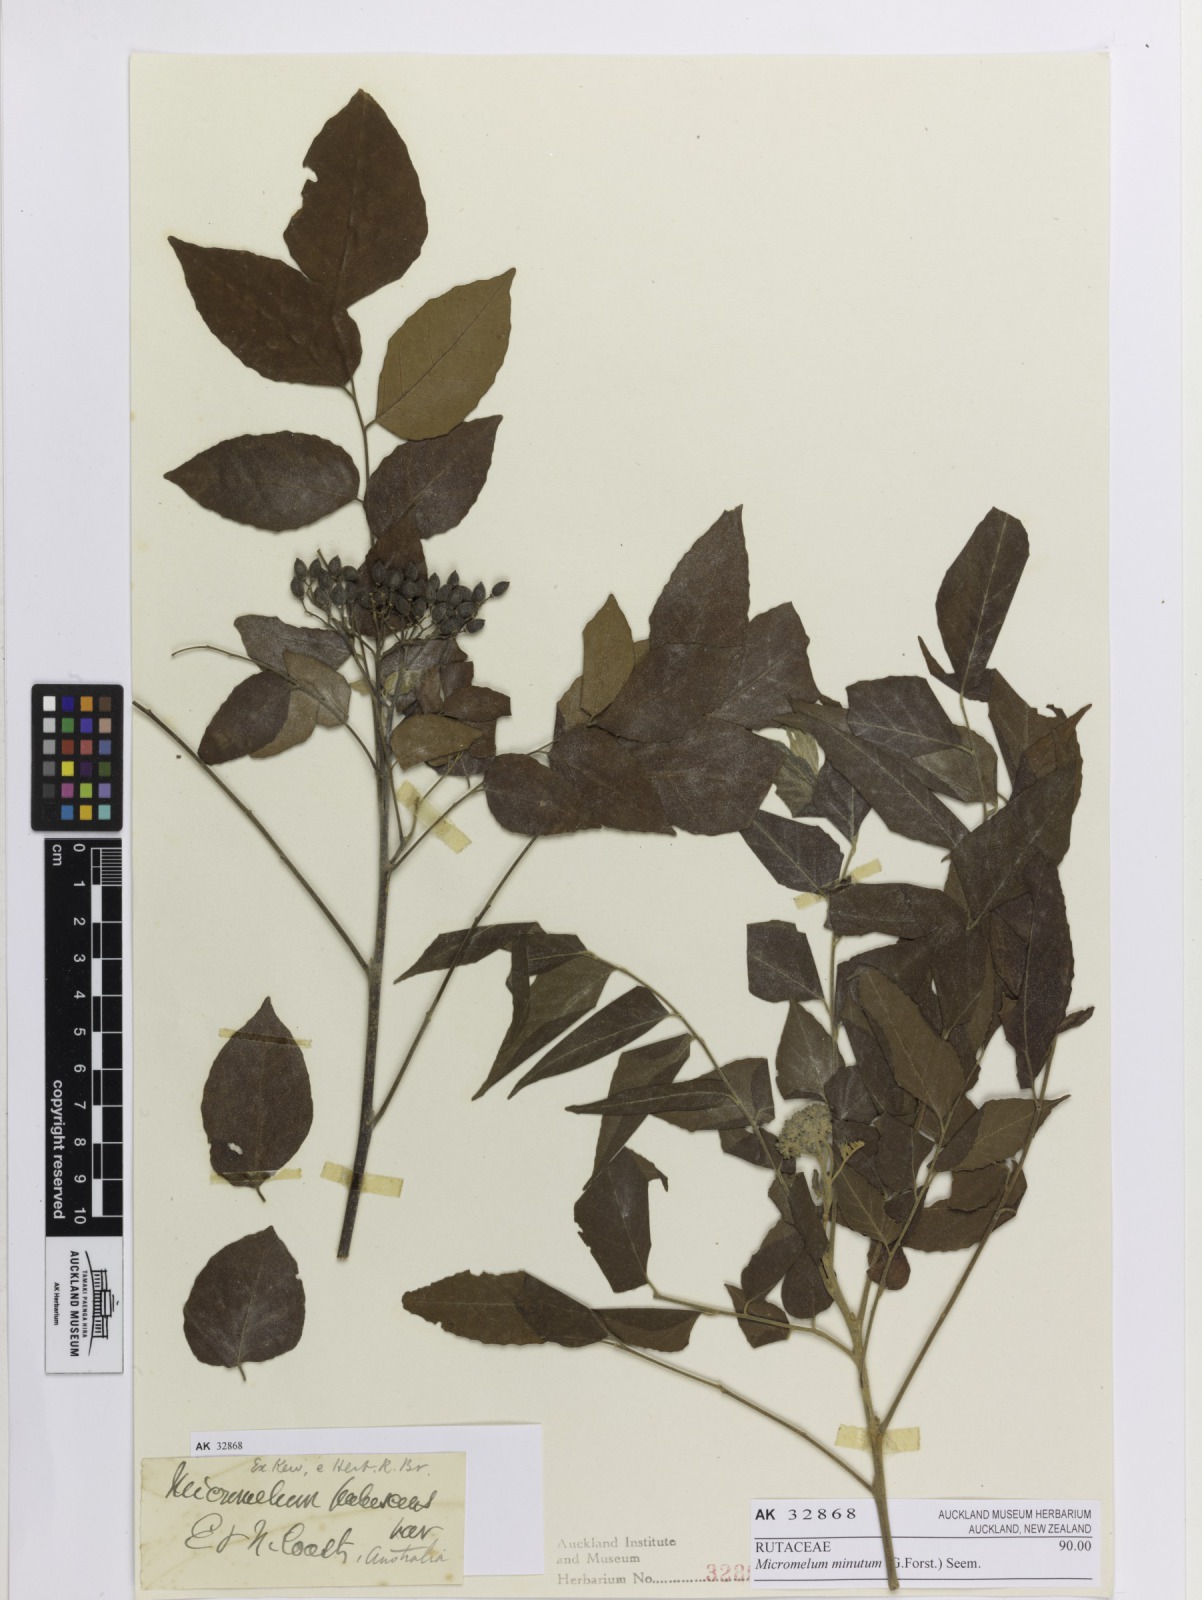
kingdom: Plantae
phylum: Tracheophyta
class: Magnoliopsida
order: Sapindales
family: Rutaceae
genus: Micromelum
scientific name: Micromelum minutum
